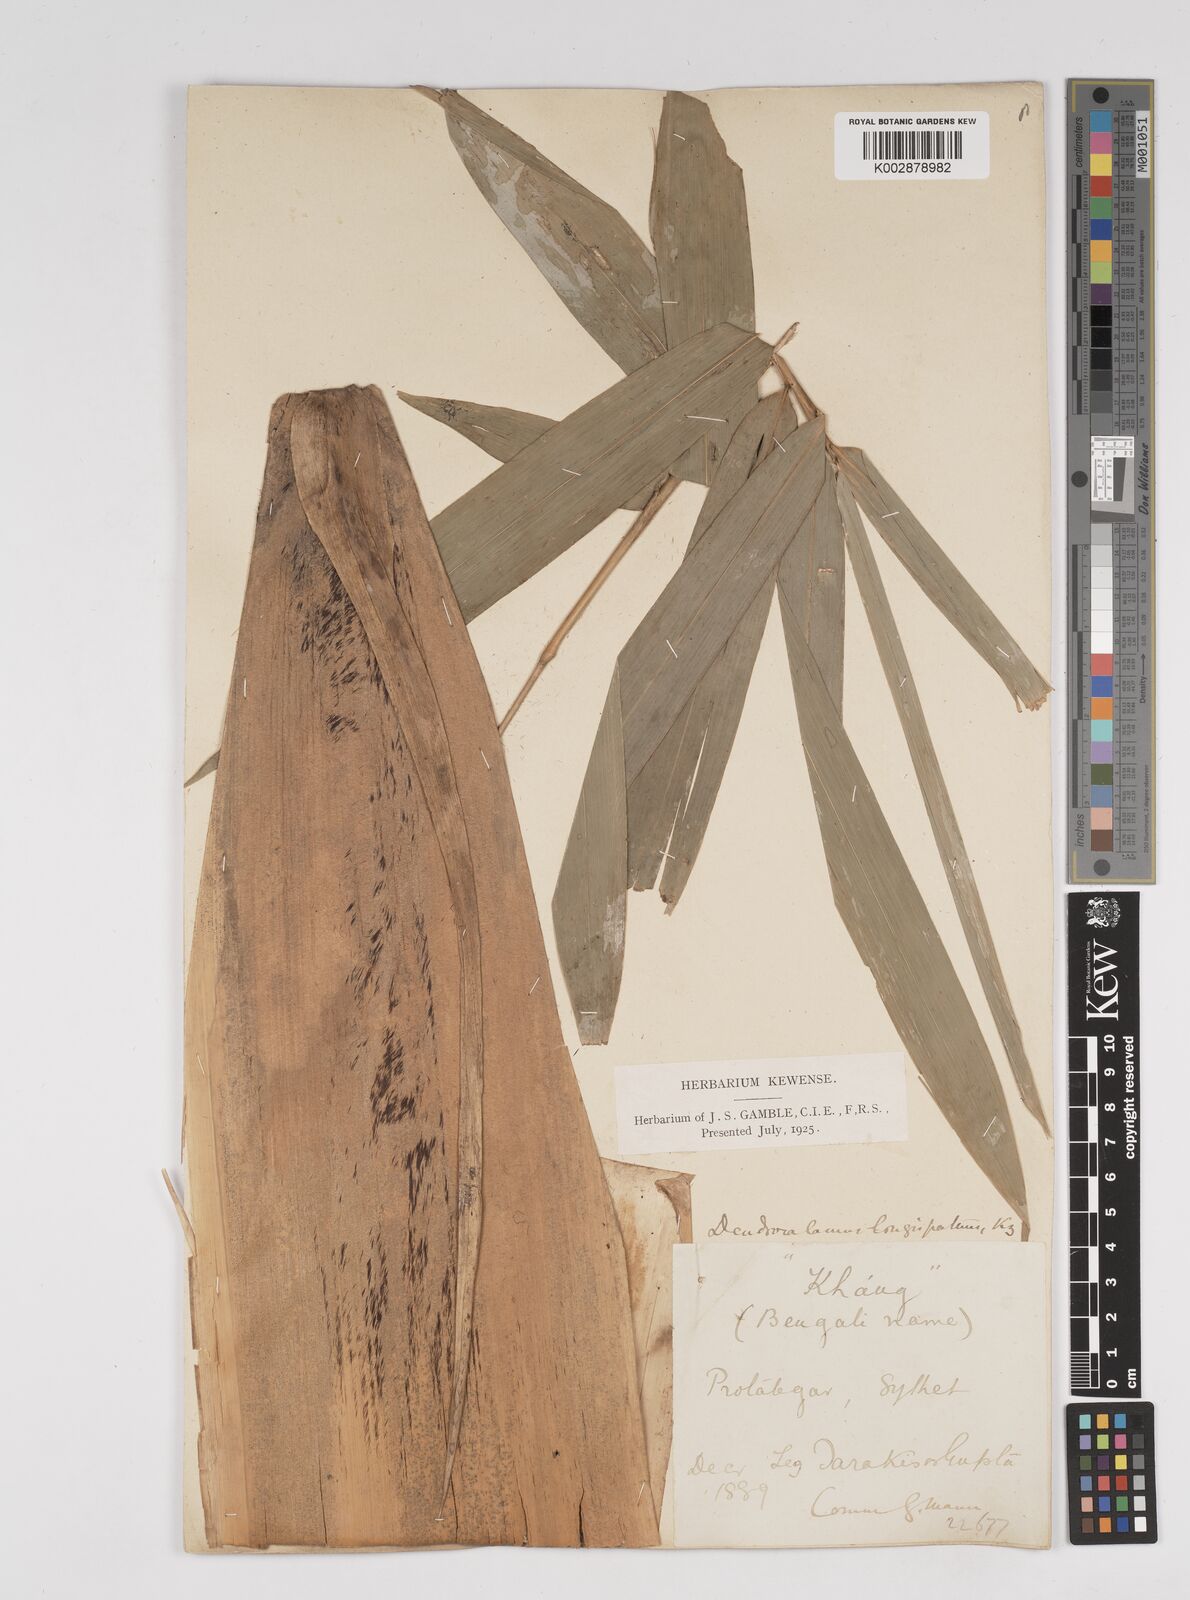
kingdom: Plantae
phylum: Tracheophyta
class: Liliopsida
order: Poales
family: Poaceae
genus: Dendrocalamus
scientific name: Dendrocalamus longispathus
